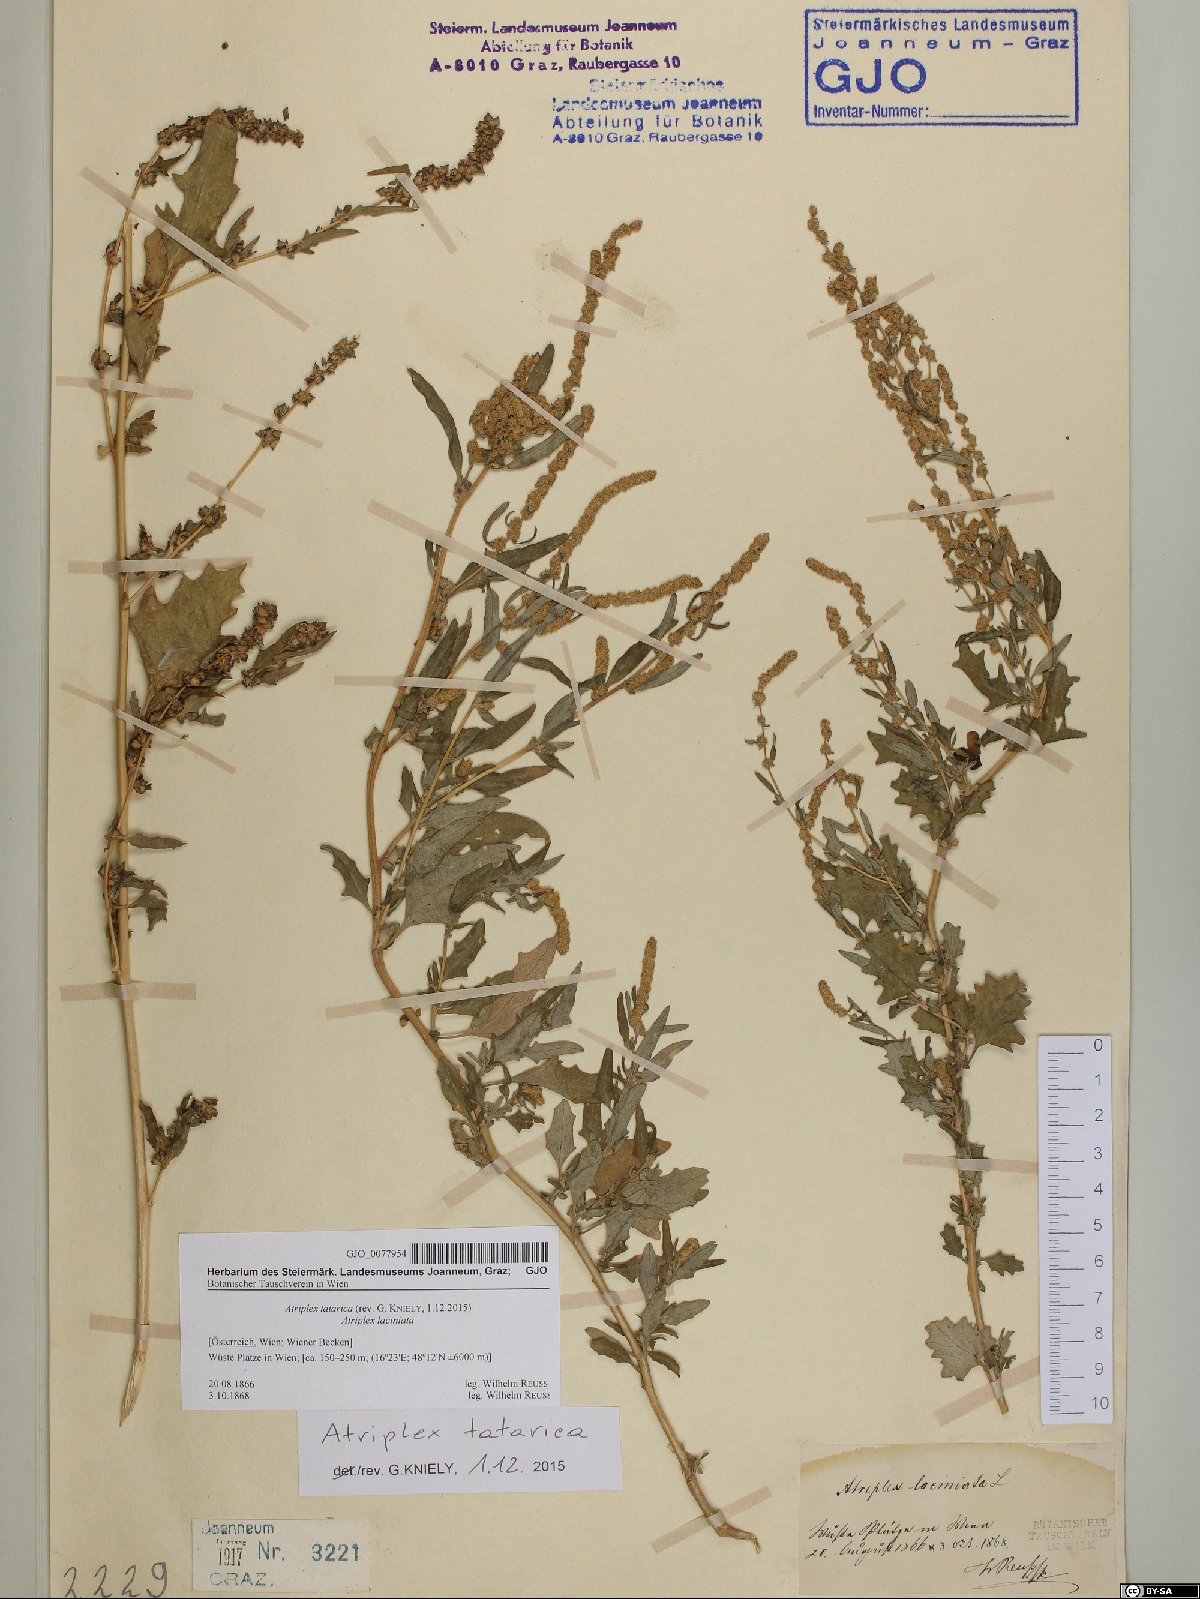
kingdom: Plantae
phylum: Tracheophyta
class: Magnoliopsida
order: Caryophyllales
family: Amaranthaceae
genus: Atriplex
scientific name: Atriplex tatarica
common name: Tatarian orache
